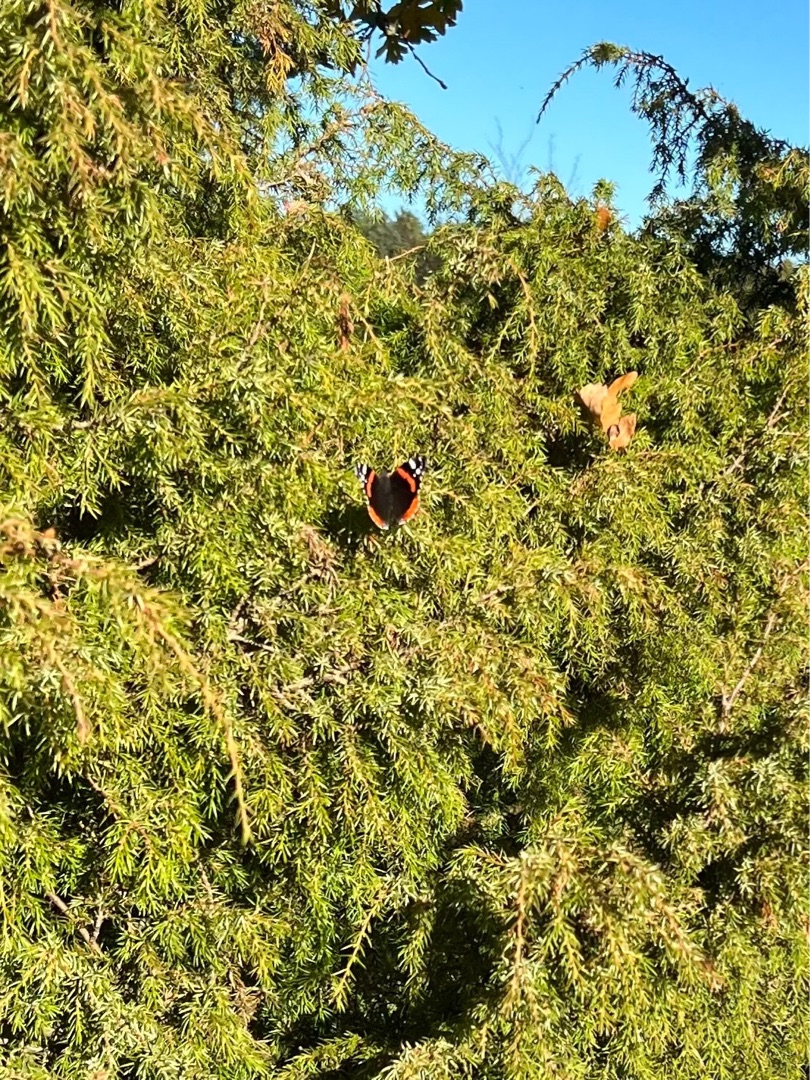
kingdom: Animalia
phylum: Arthropoda
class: Insecta
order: Lepidoptera
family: Nymphalidae
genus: Vanessa
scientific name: Vanessa atalanta
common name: Admiral
